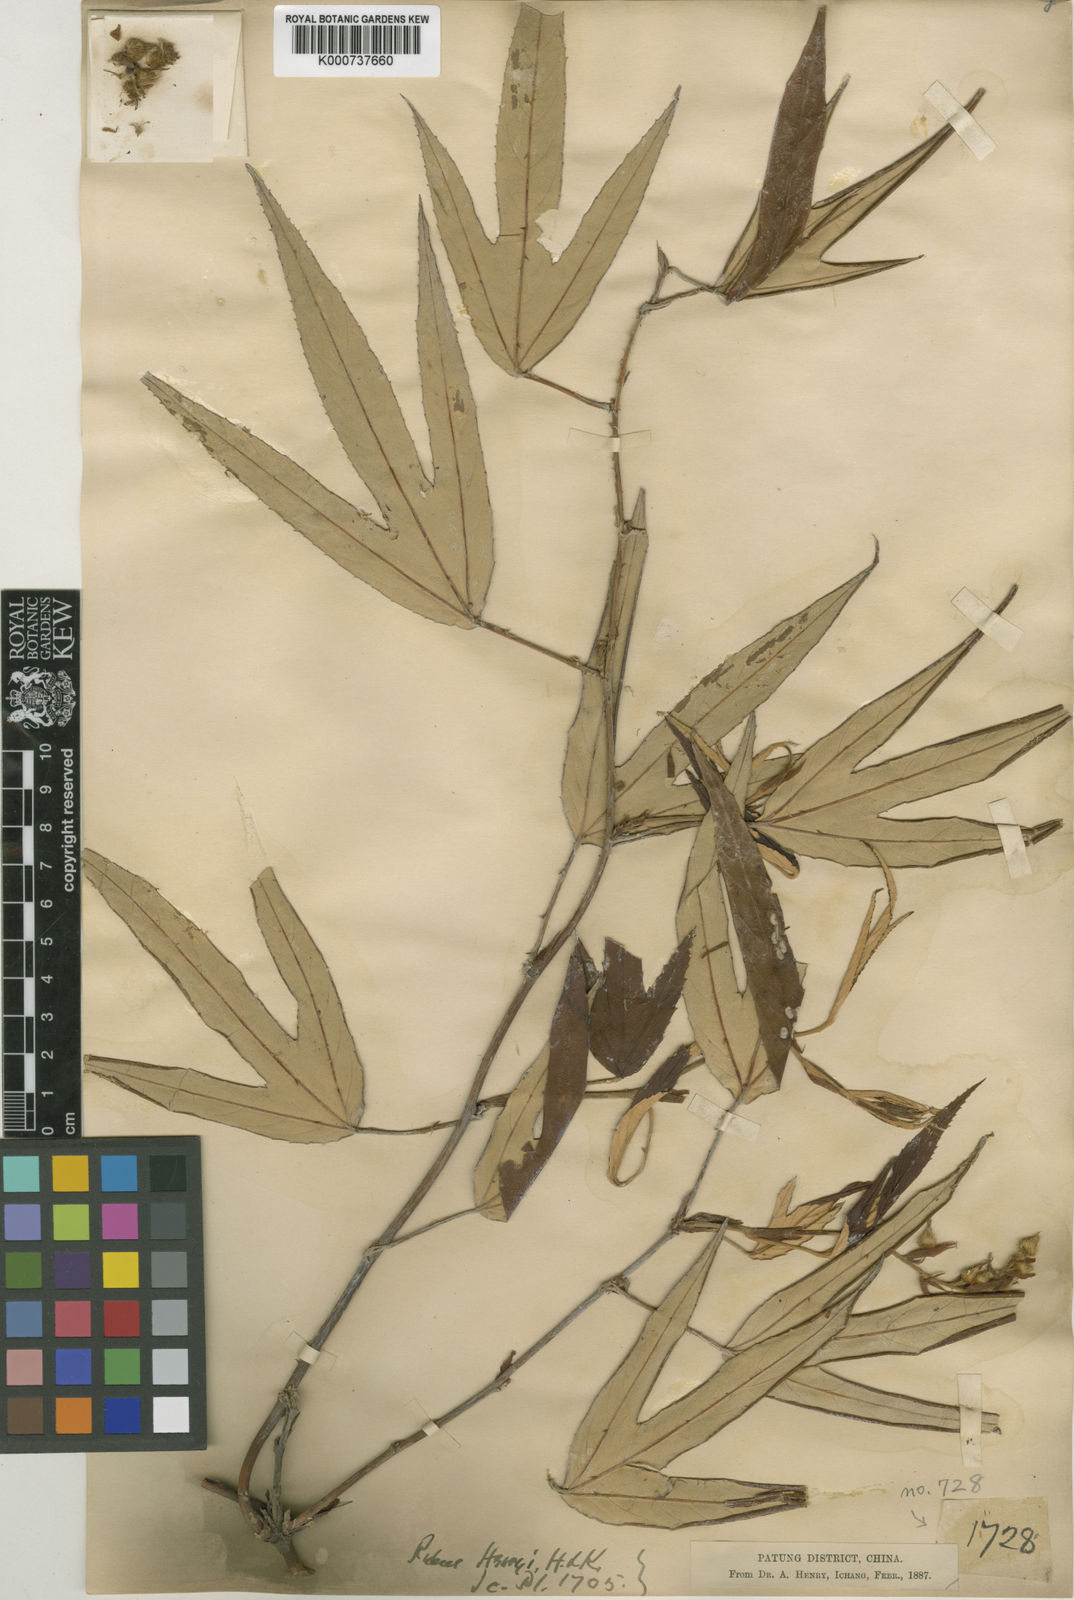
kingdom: Plantae
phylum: Tracheophyta
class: Magnoliopsida
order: Rosales
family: Rosaceae
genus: Rubus
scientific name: Rubus henryi
